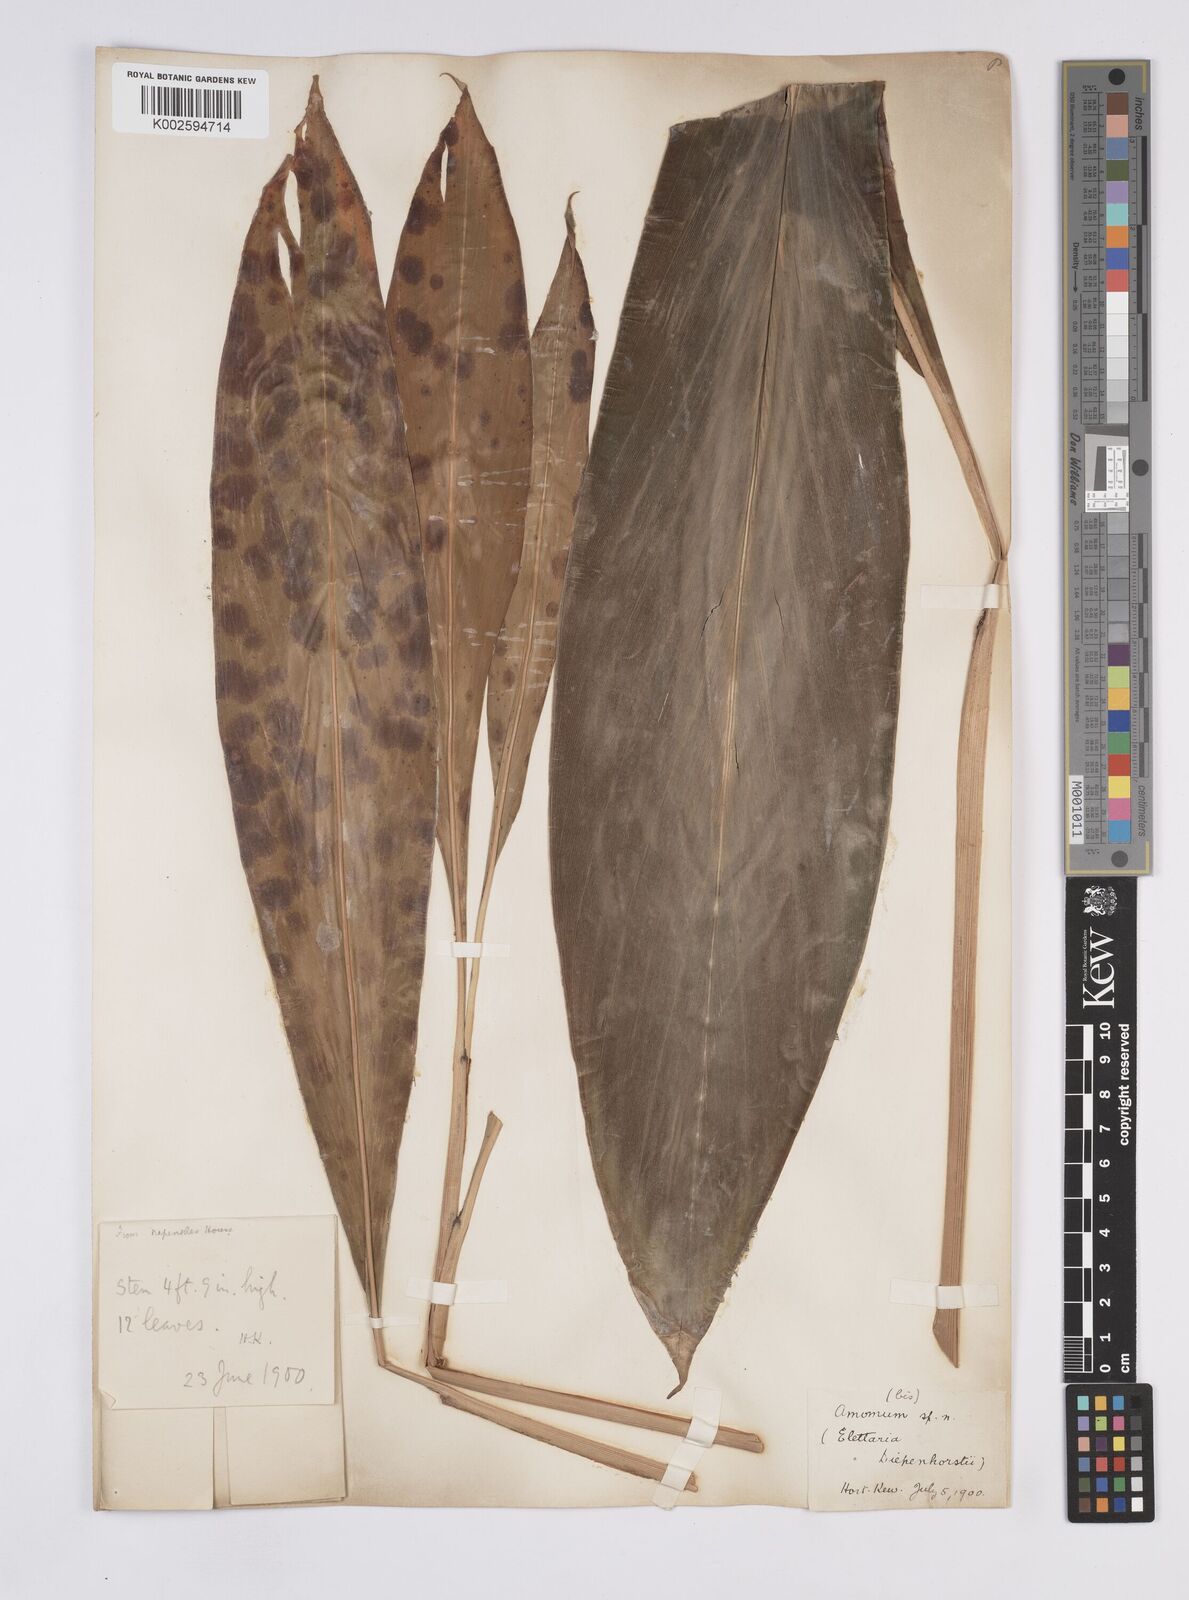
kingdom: Plantae
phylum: Tracheophyta
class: Liliopsida
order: Zingiberales
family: Zingiberaceae
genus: Elettaria
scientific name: Elettaria
